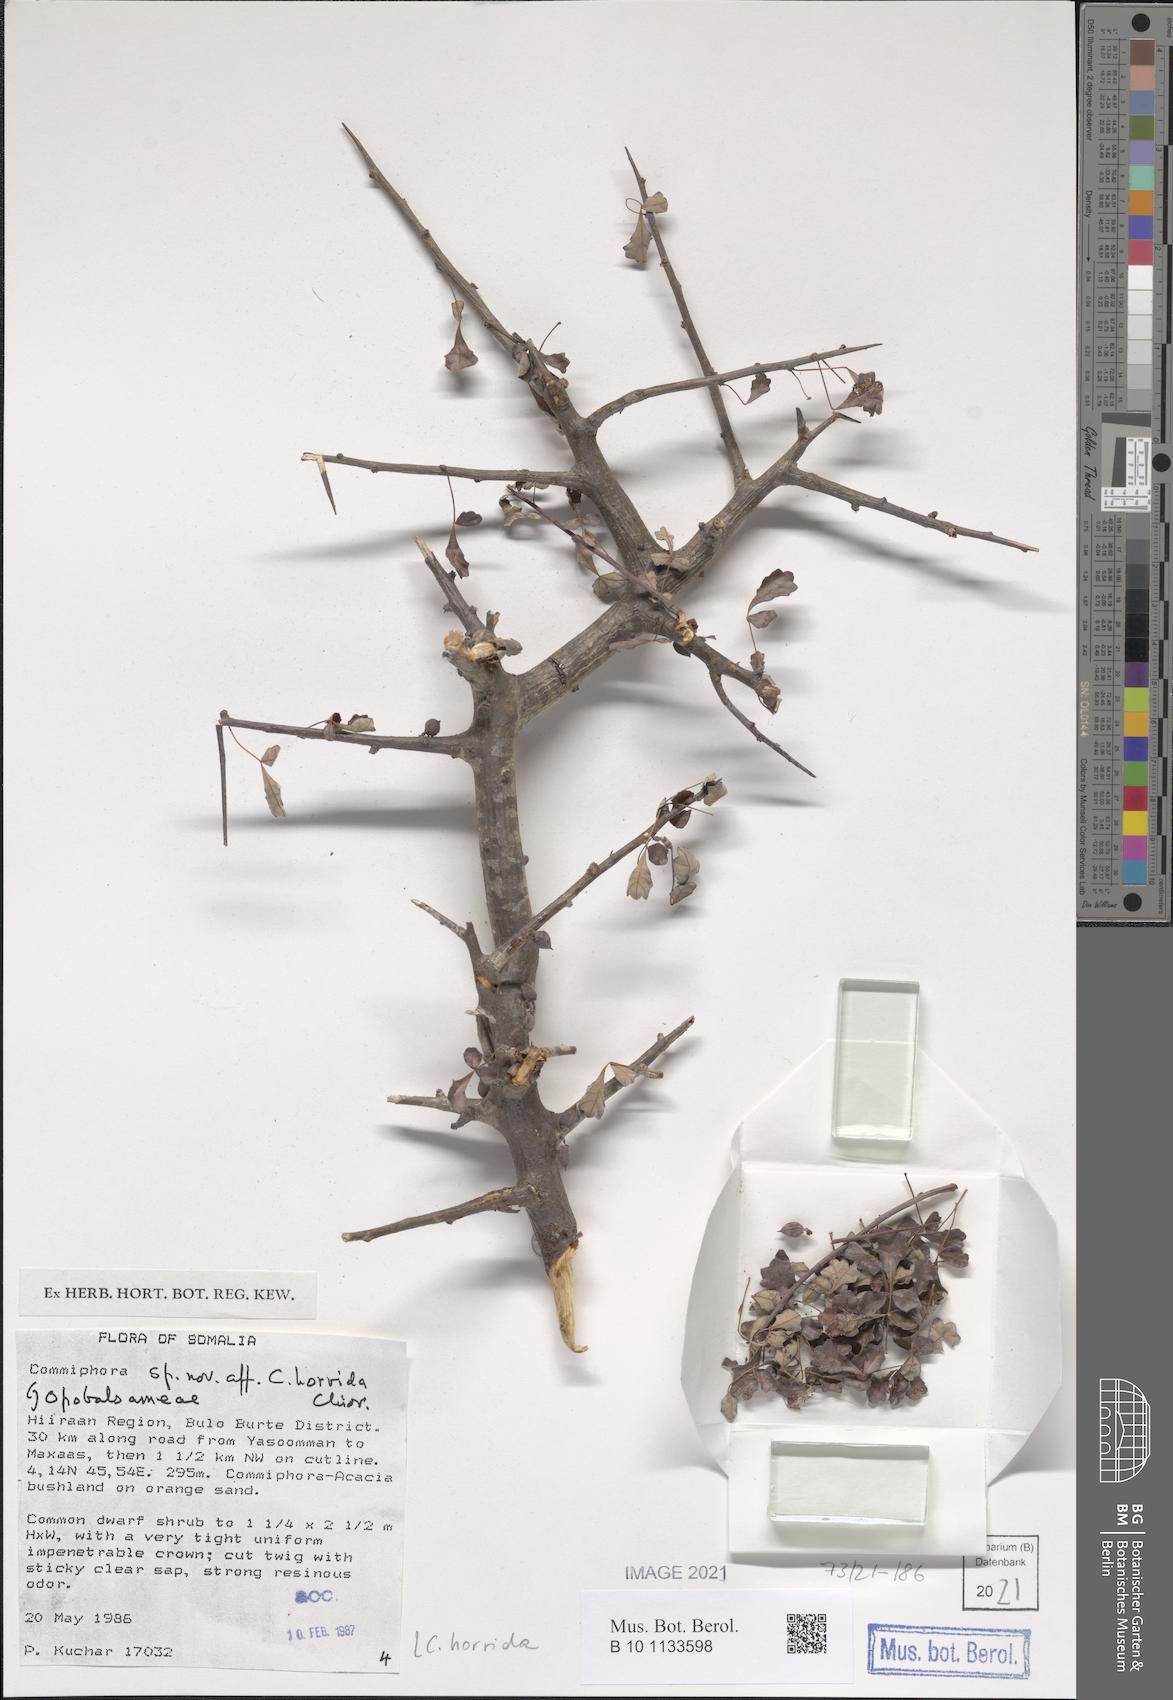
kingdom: Plantae
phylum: Tracheophyta
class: Magnoliopsida
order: Sapindales
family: Burseraceae
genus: Commiphora
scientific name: Commiphora lobatospathulata
